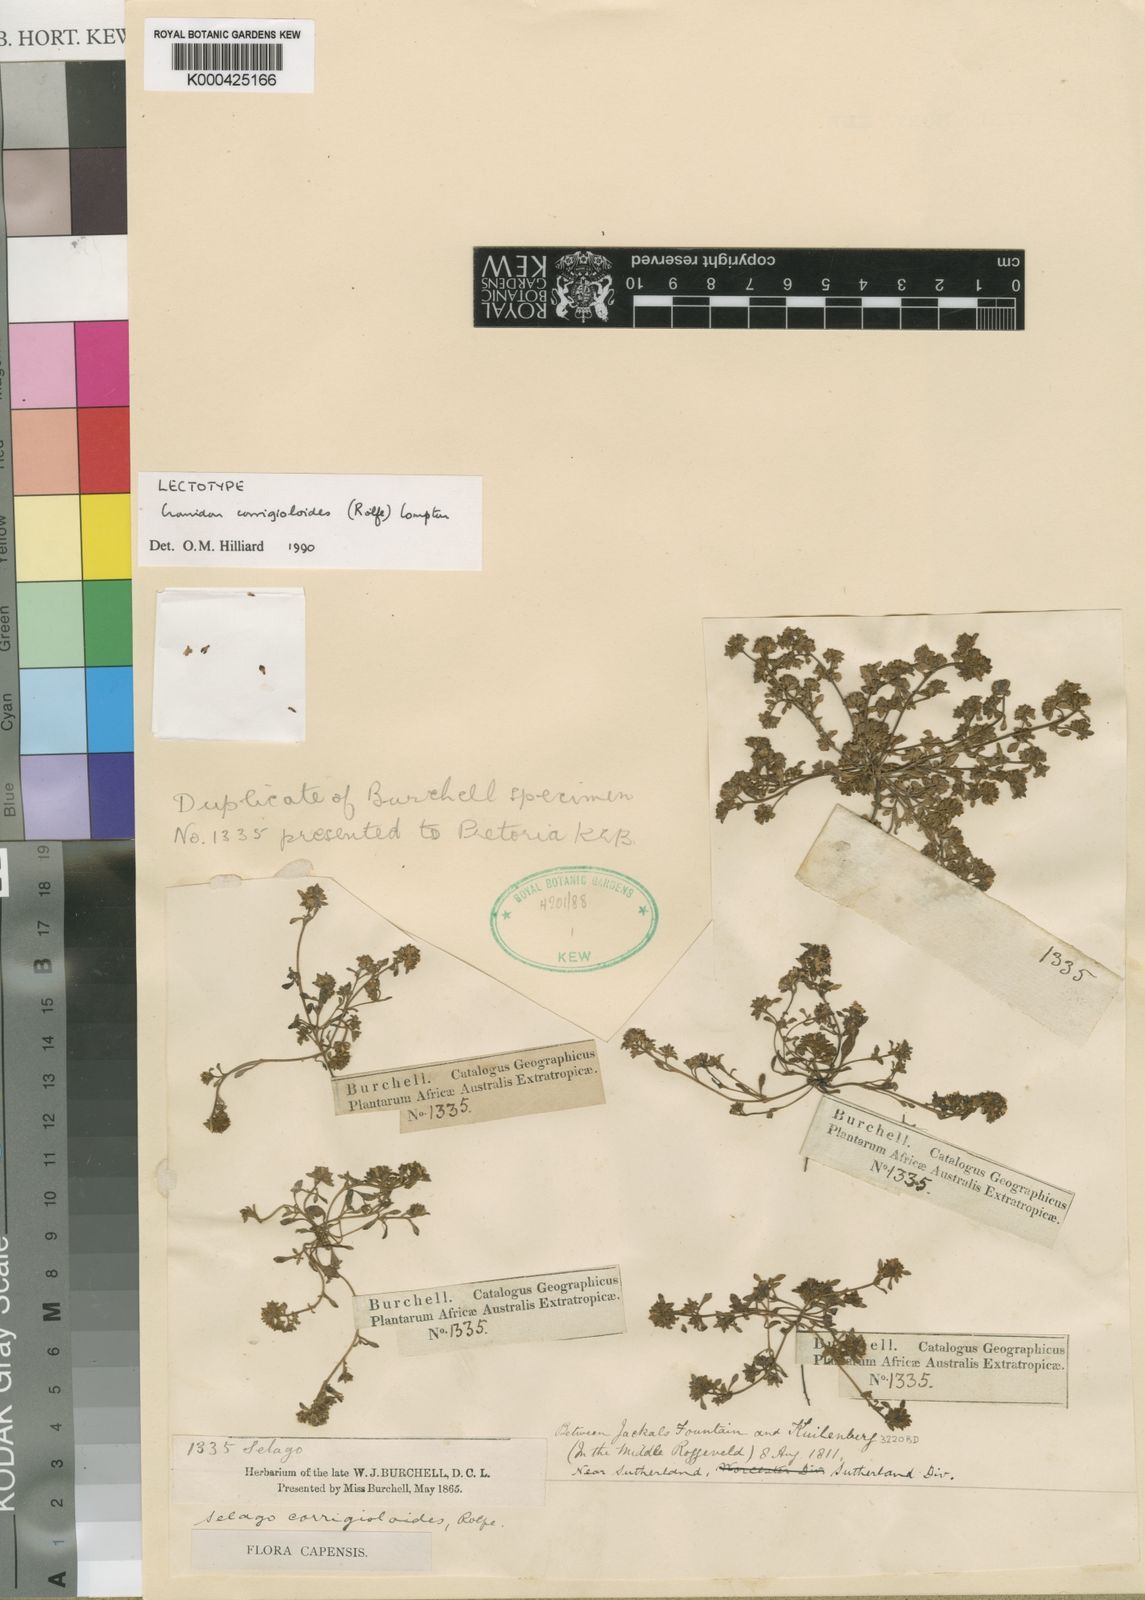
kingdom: Plantae
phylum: Tracheophyta
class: Magnoliopsida
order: Lamiales
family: Scrophulariaceae
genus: Cromidon
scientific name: Cromidon corrigioloides
